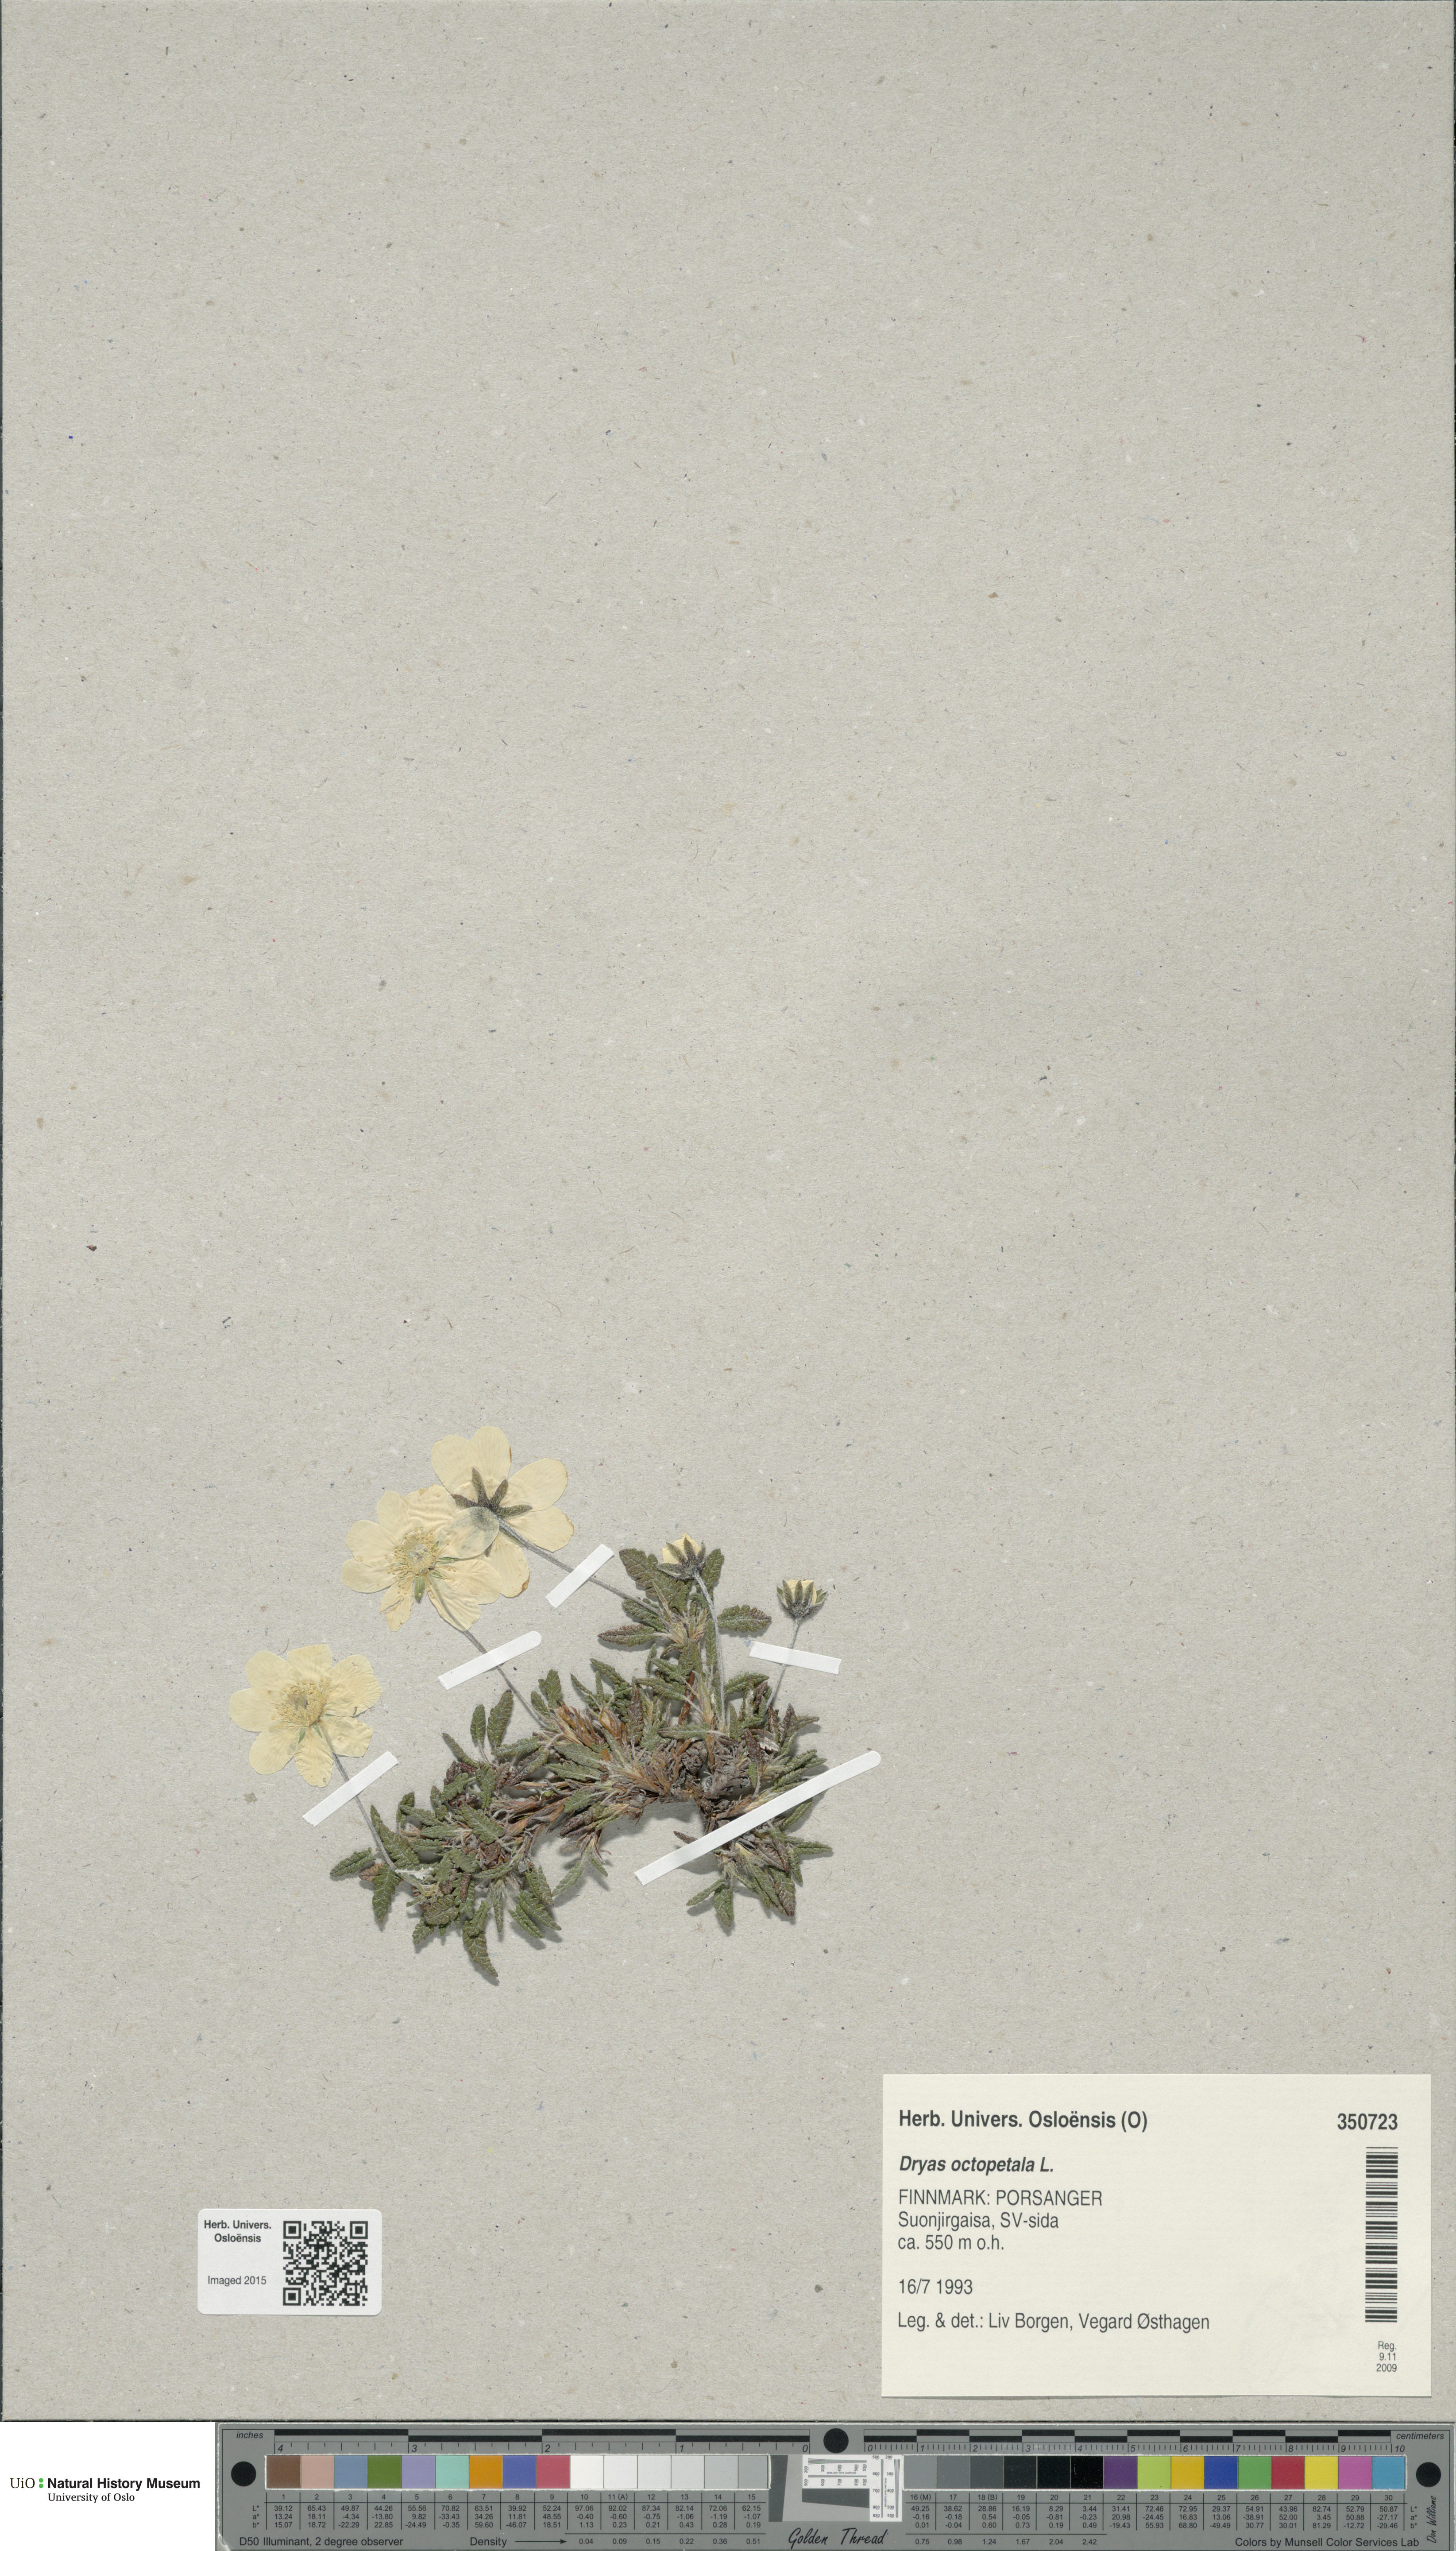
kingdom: Plantae
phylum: Tracheophyta
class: Magnoliopsida
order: Rosales
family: Rosaceae
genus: Dryas
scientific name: Dryas octopetala
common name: Eight-petal mountain-avens
